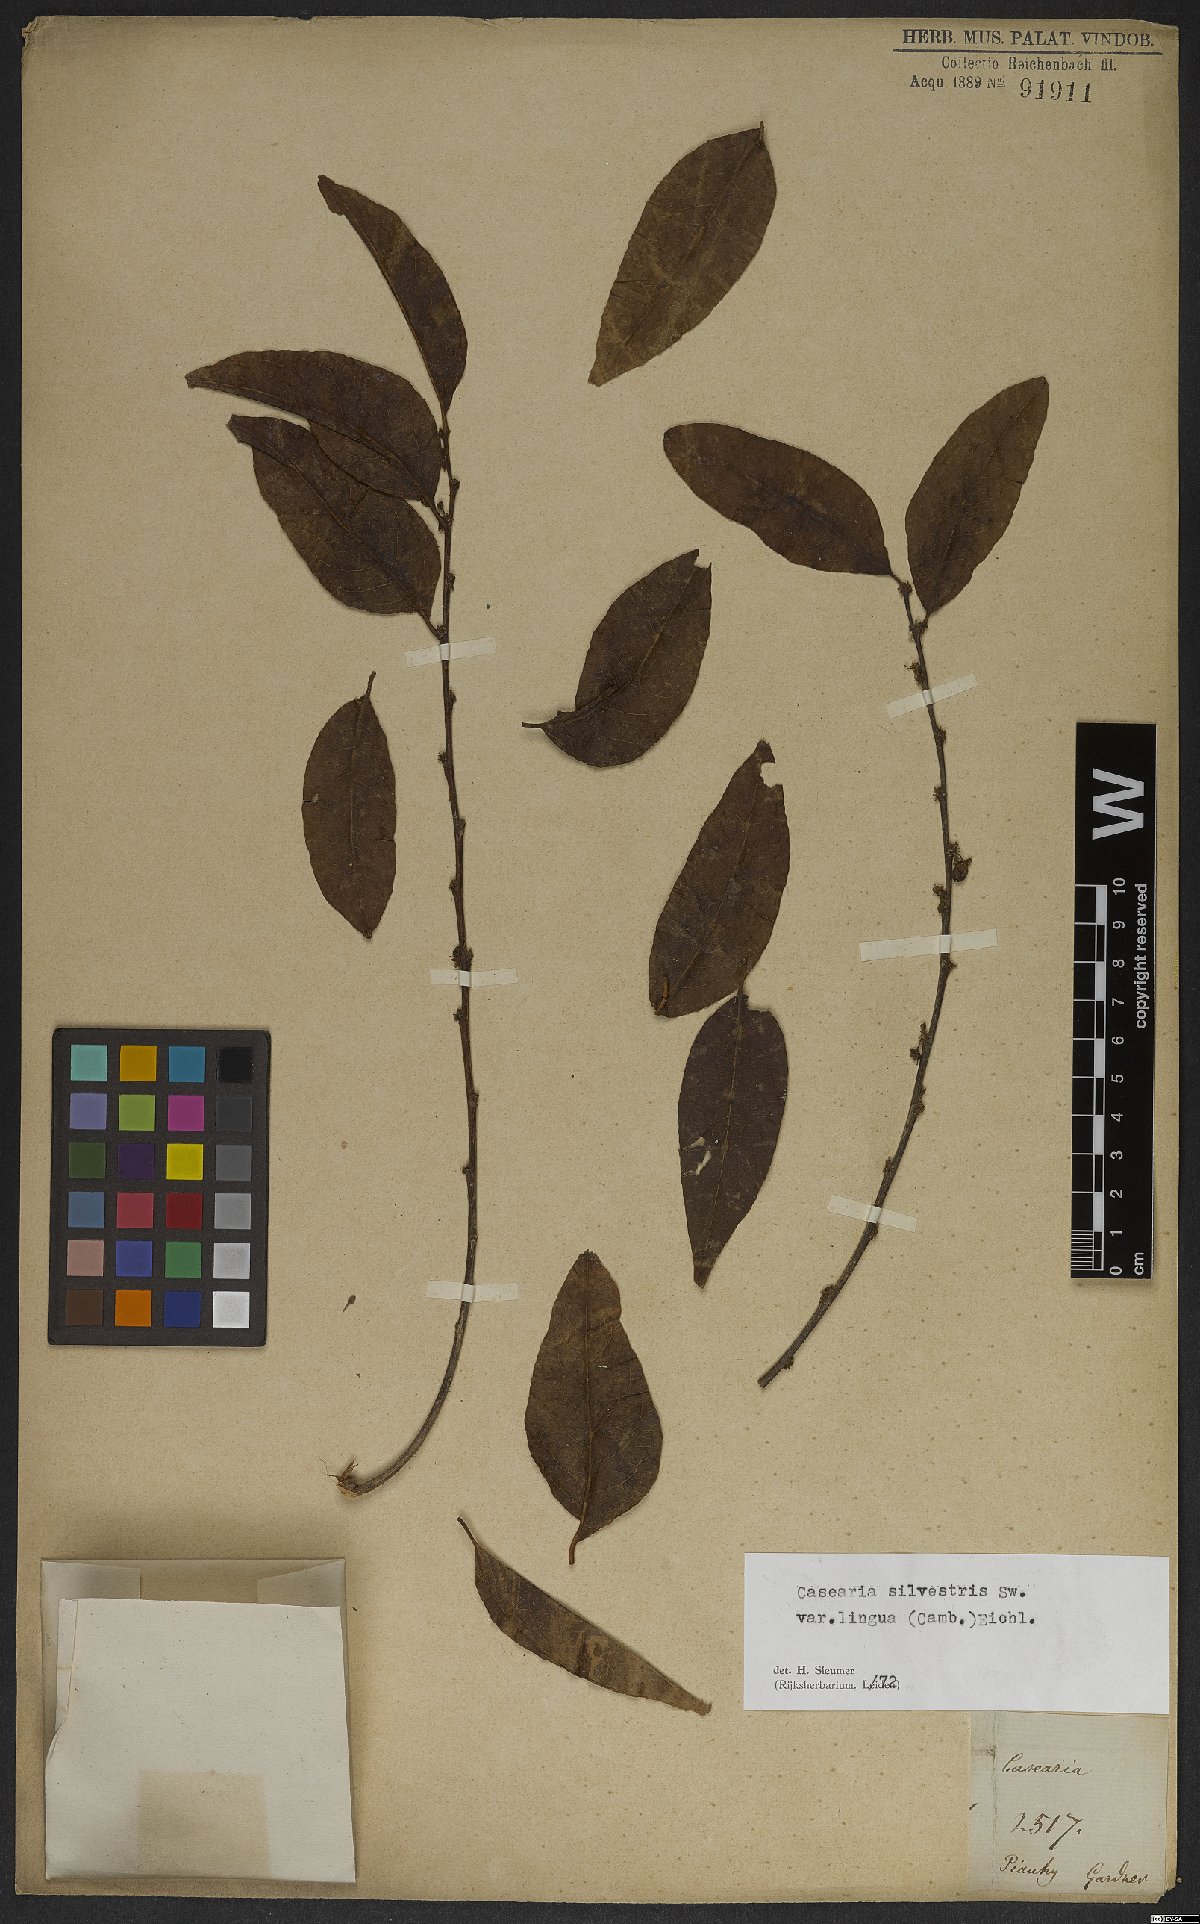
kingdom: Plantae
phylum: Tracheophyta
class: Magnoliopsida
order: Malpighiales
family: Salicaceae
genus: Casearia
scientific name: Casearia sylvestris
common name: Wild sage
